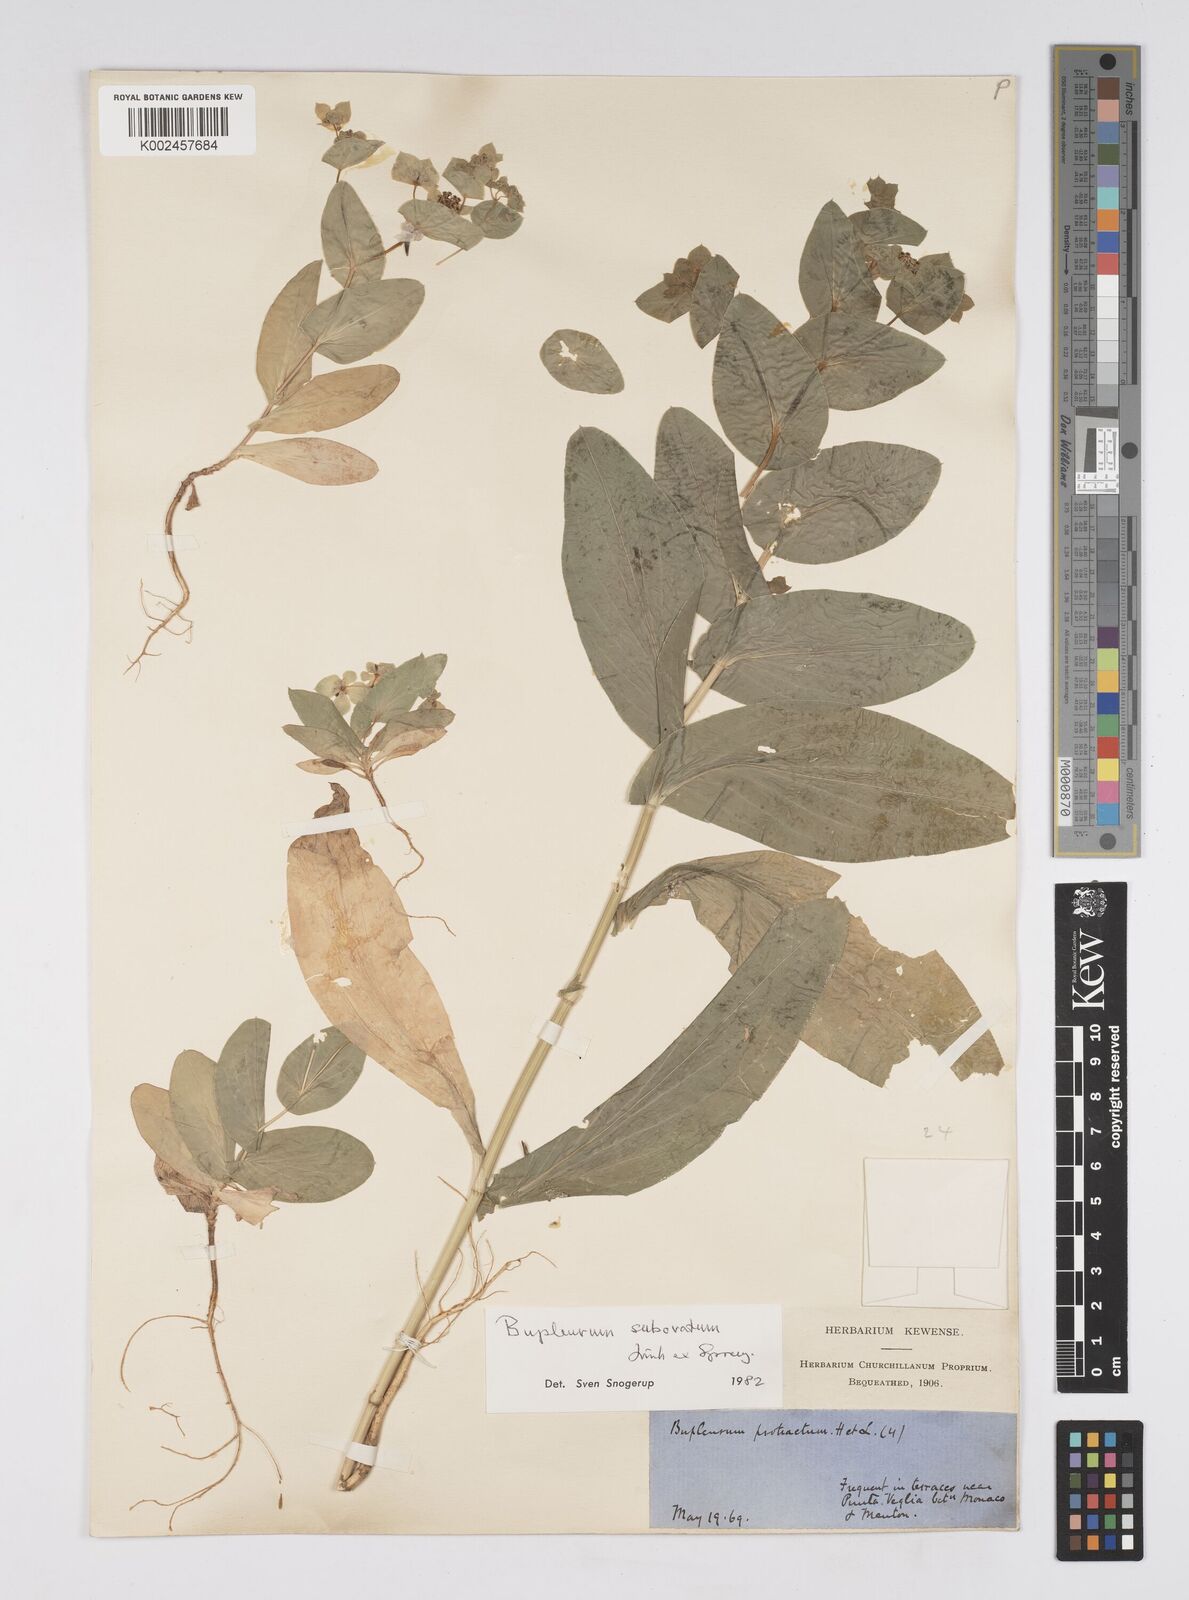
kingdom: Plantae
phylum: Tracheophyta
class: Magnoliopsida
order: Apiales
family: Apiaceae
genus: Bupleurum
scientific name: Bupleurum lancifolium
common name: False thorow-wax
